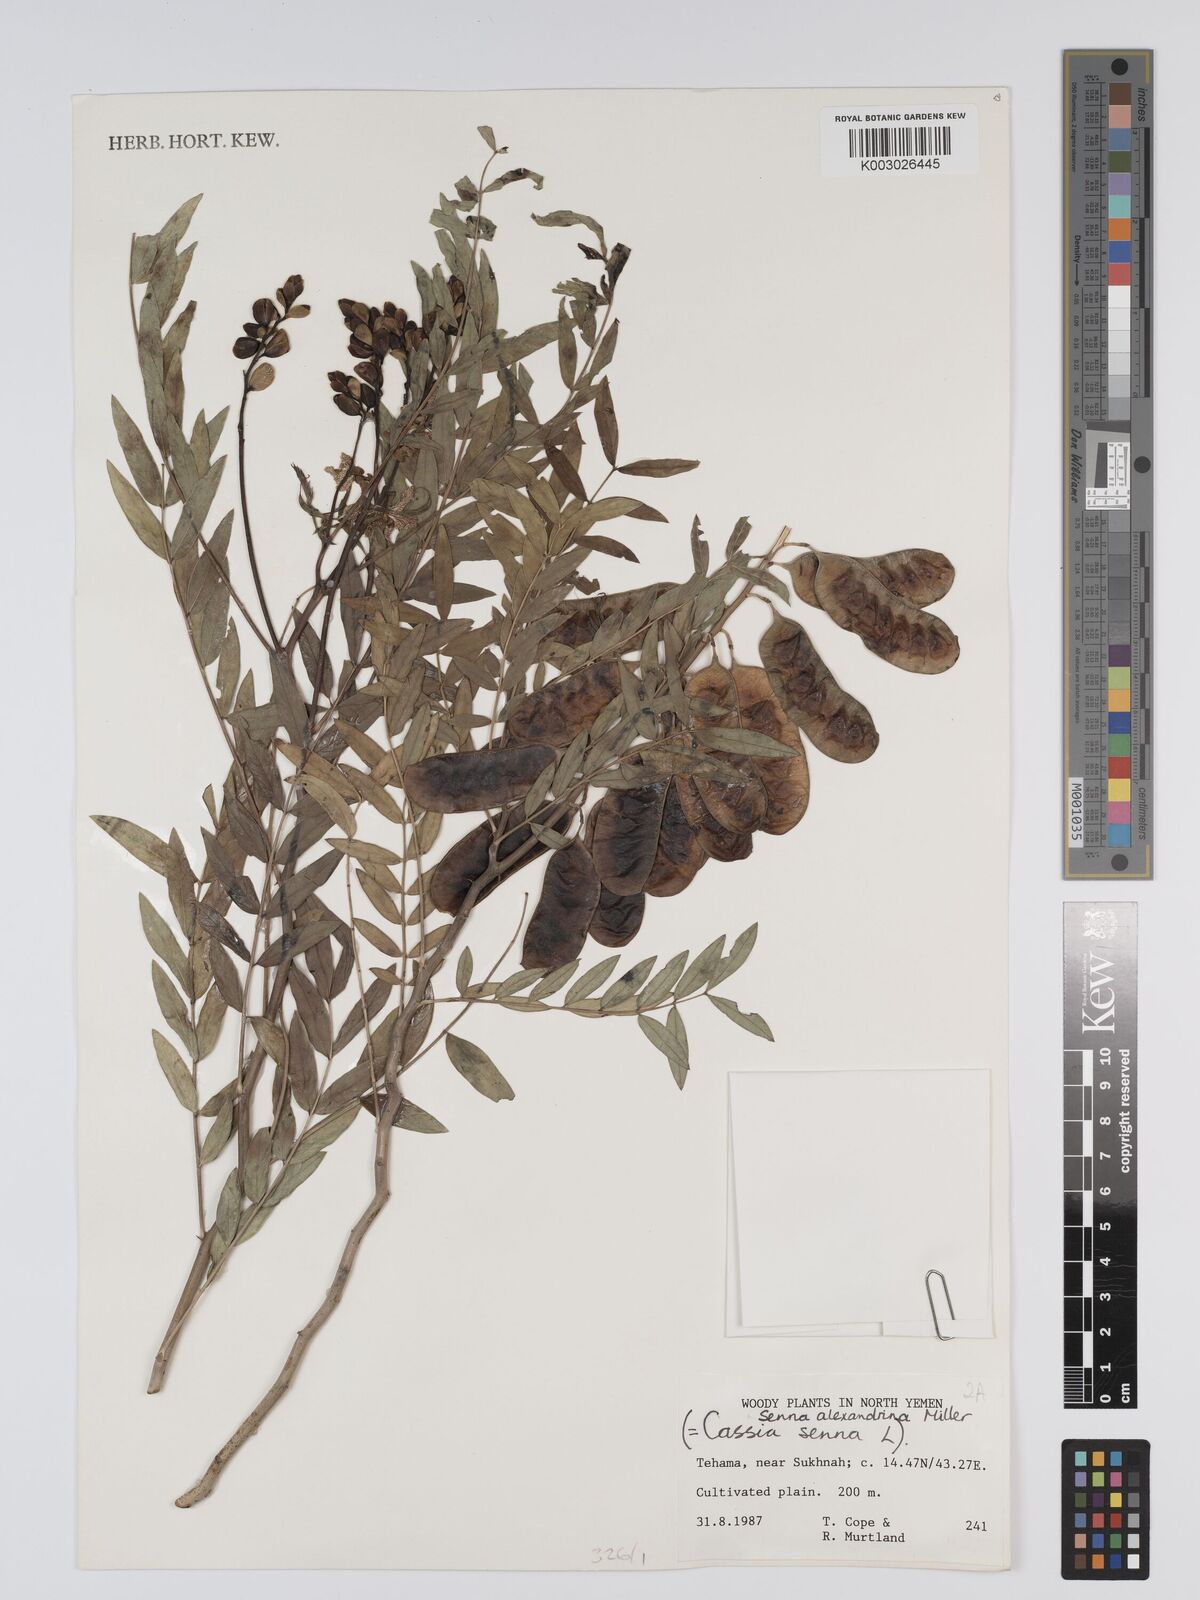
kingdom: Plantae
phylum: Tracheophyta
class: Magnoliopsida
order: Fabales
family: Fabaceae
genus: Senna
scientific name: Senna alexandrina
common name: True senna
